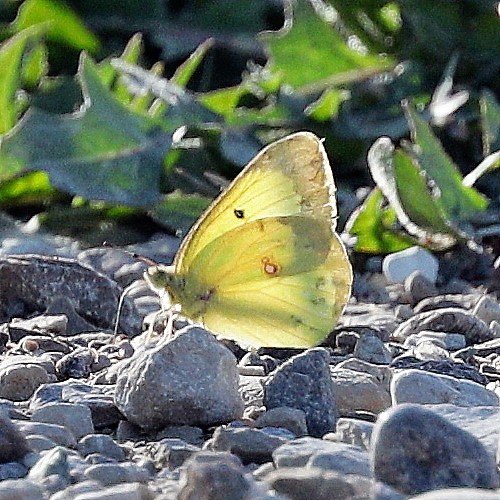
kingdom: Animalia
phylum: Arthropoda
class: Insecta
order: Lepidoptera
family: Pieridae
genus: Colias
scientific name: Colias philodice
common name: Clouded Sulphur
